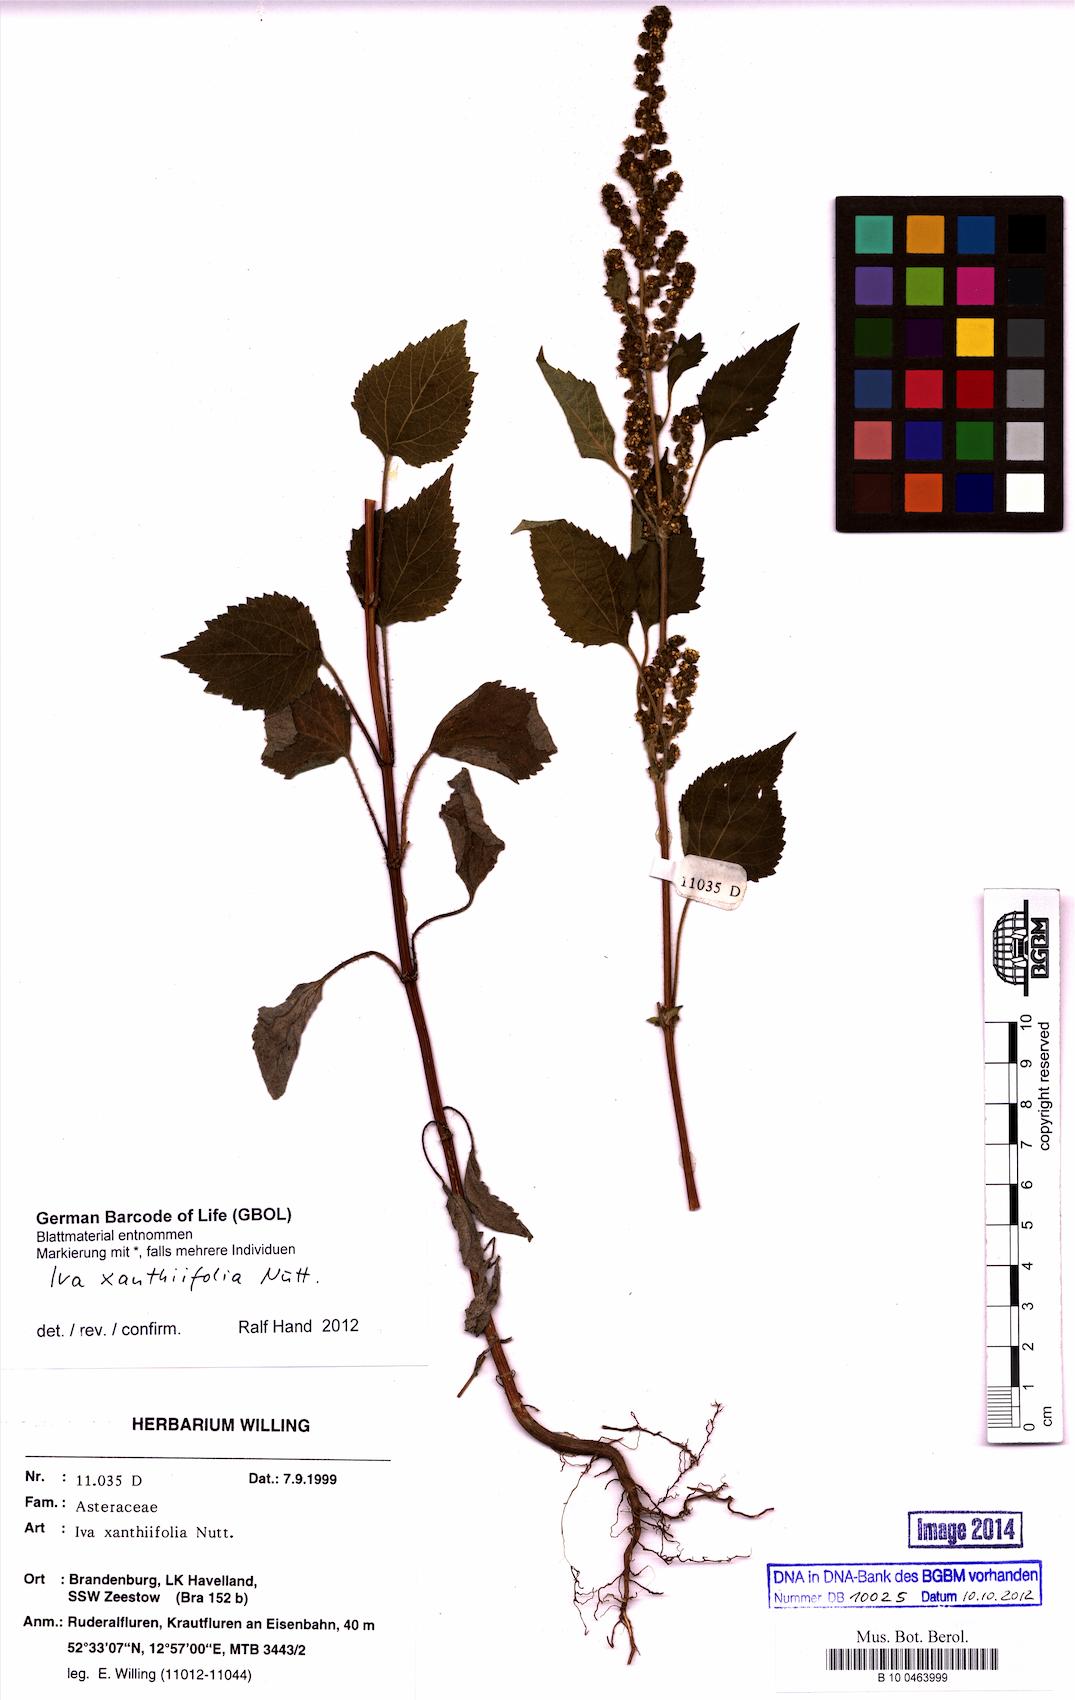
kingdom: Plantae
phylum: Tracheophyta
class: Magnoliopsida
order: Asterales
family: Asteraceae
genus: Cyclachaena
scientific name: Cyclachaena xanthiifolia
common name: Giant sumpweed
